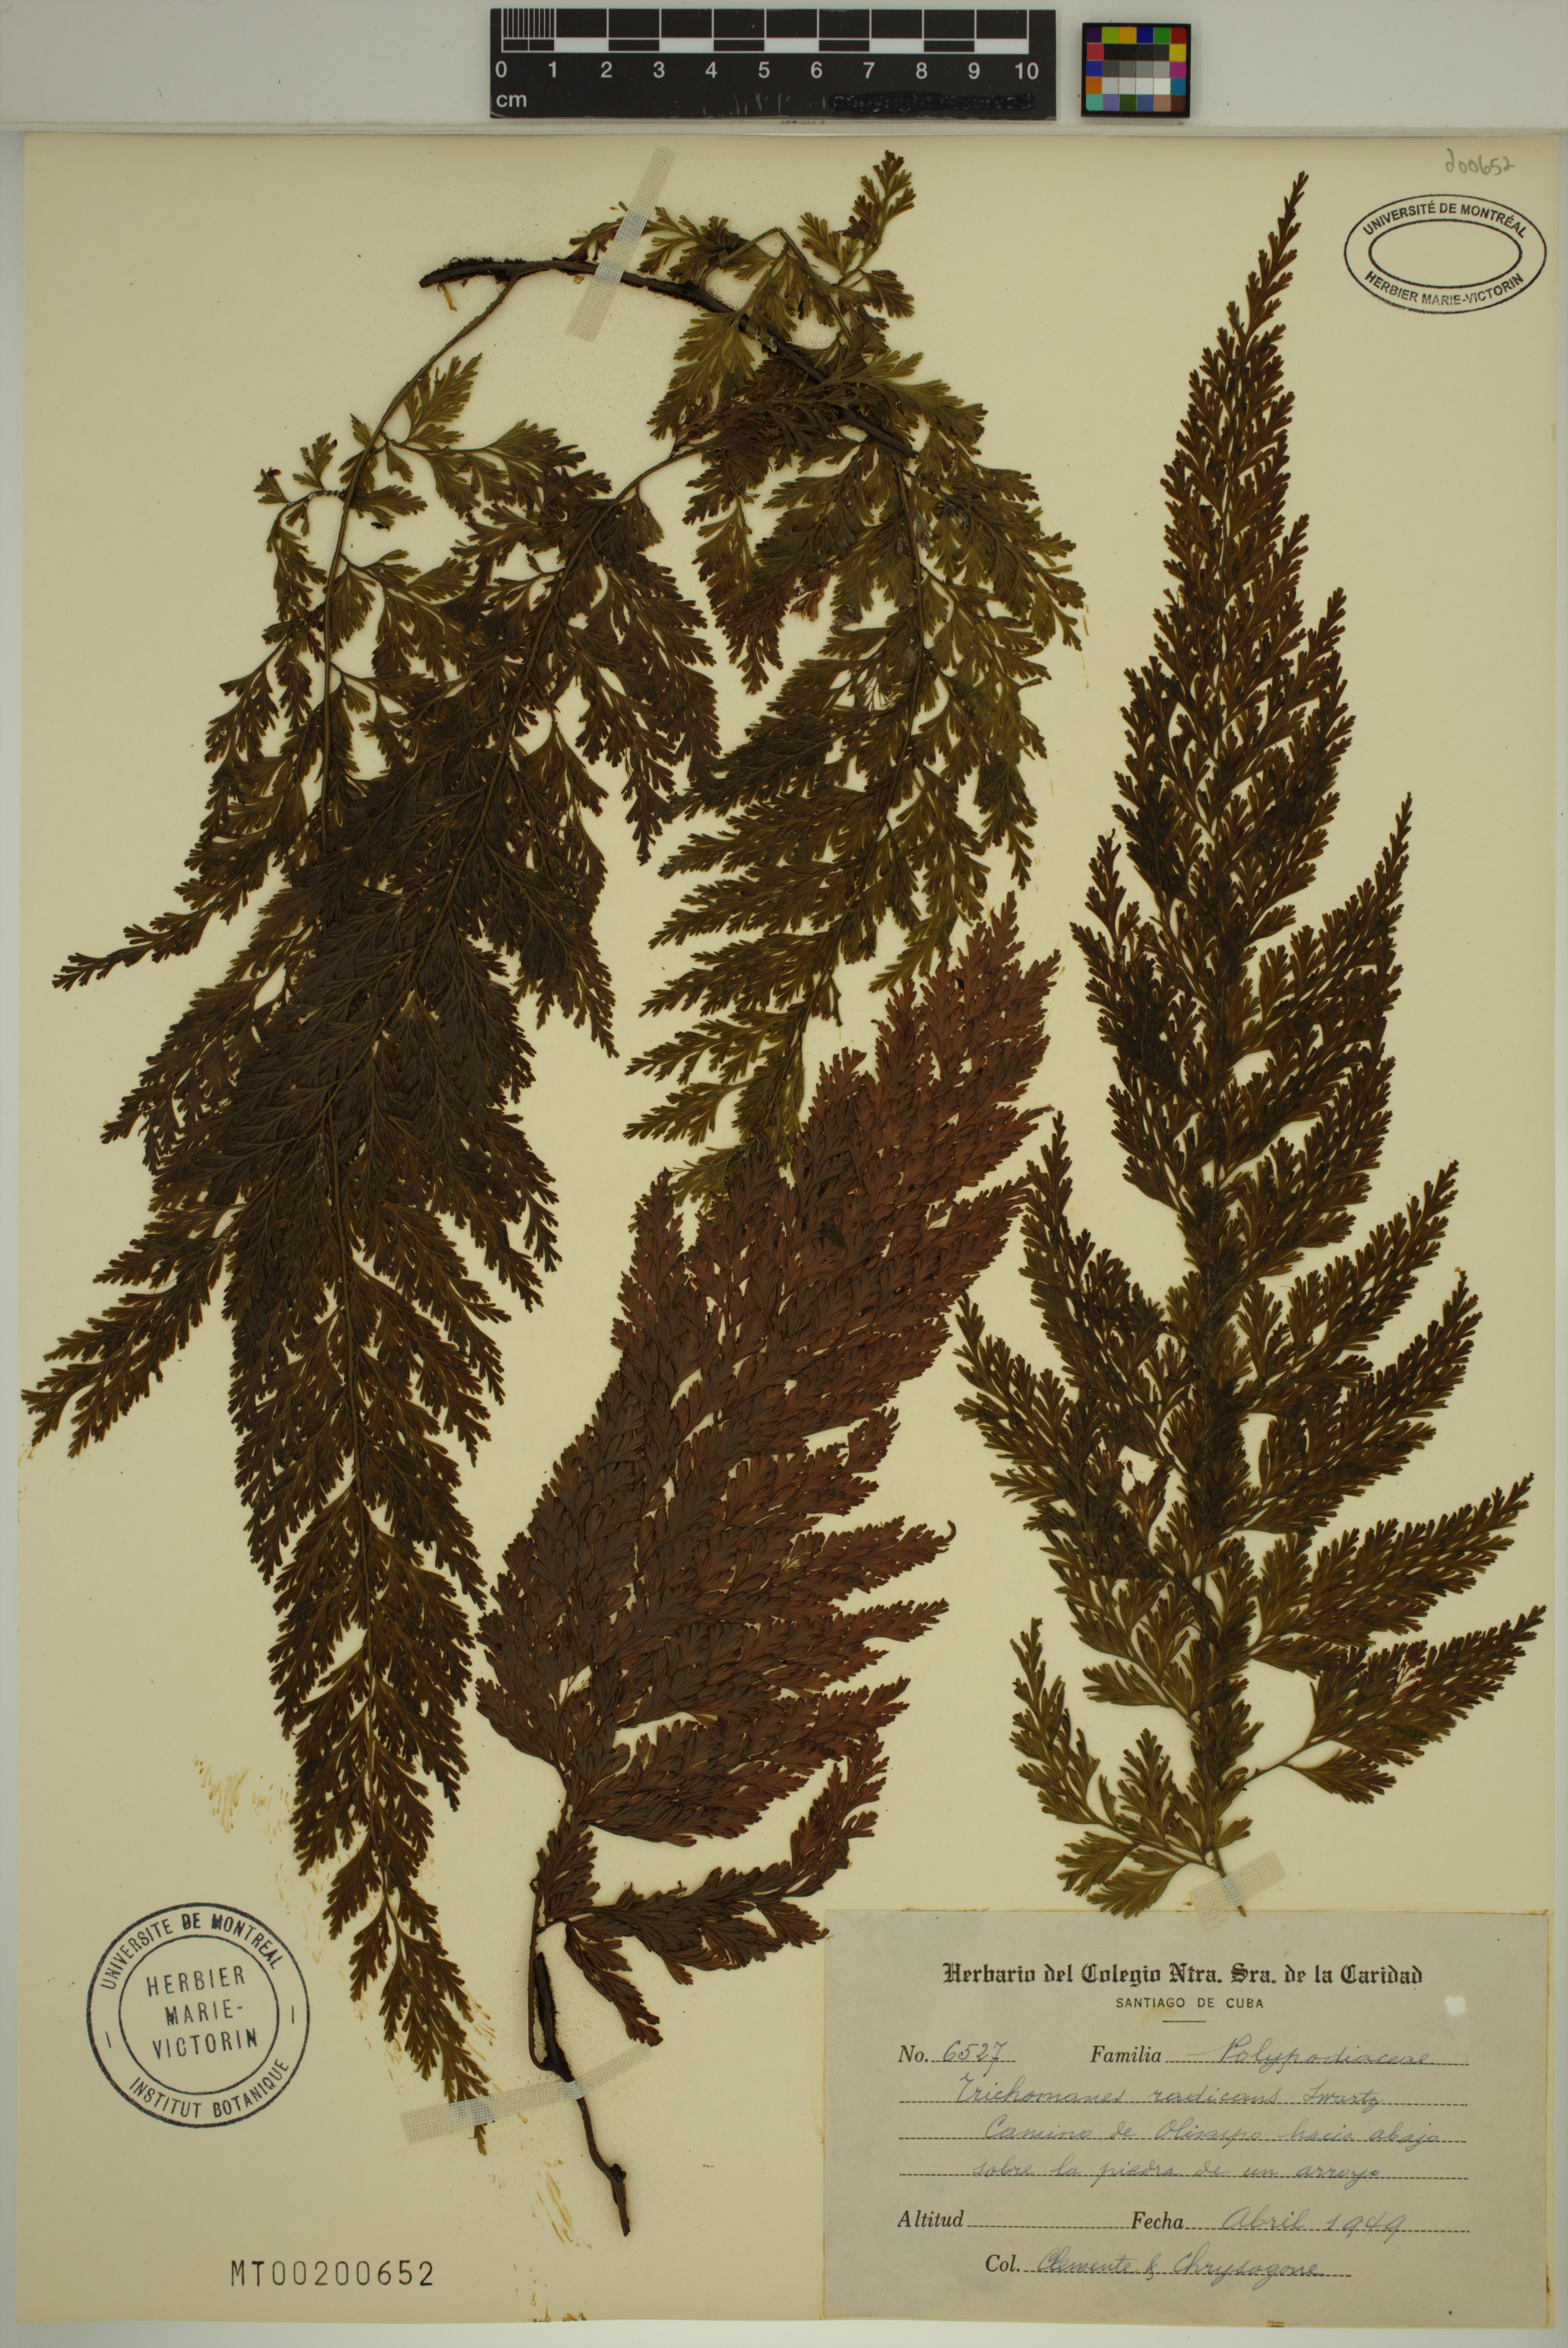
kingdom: Plantae
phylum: Tracheophyta
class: Polypodiopsida
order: Hymenophyllales
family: Hymenophyllaceae
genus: Vandenboschia
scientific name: Vandenboschia radicans
